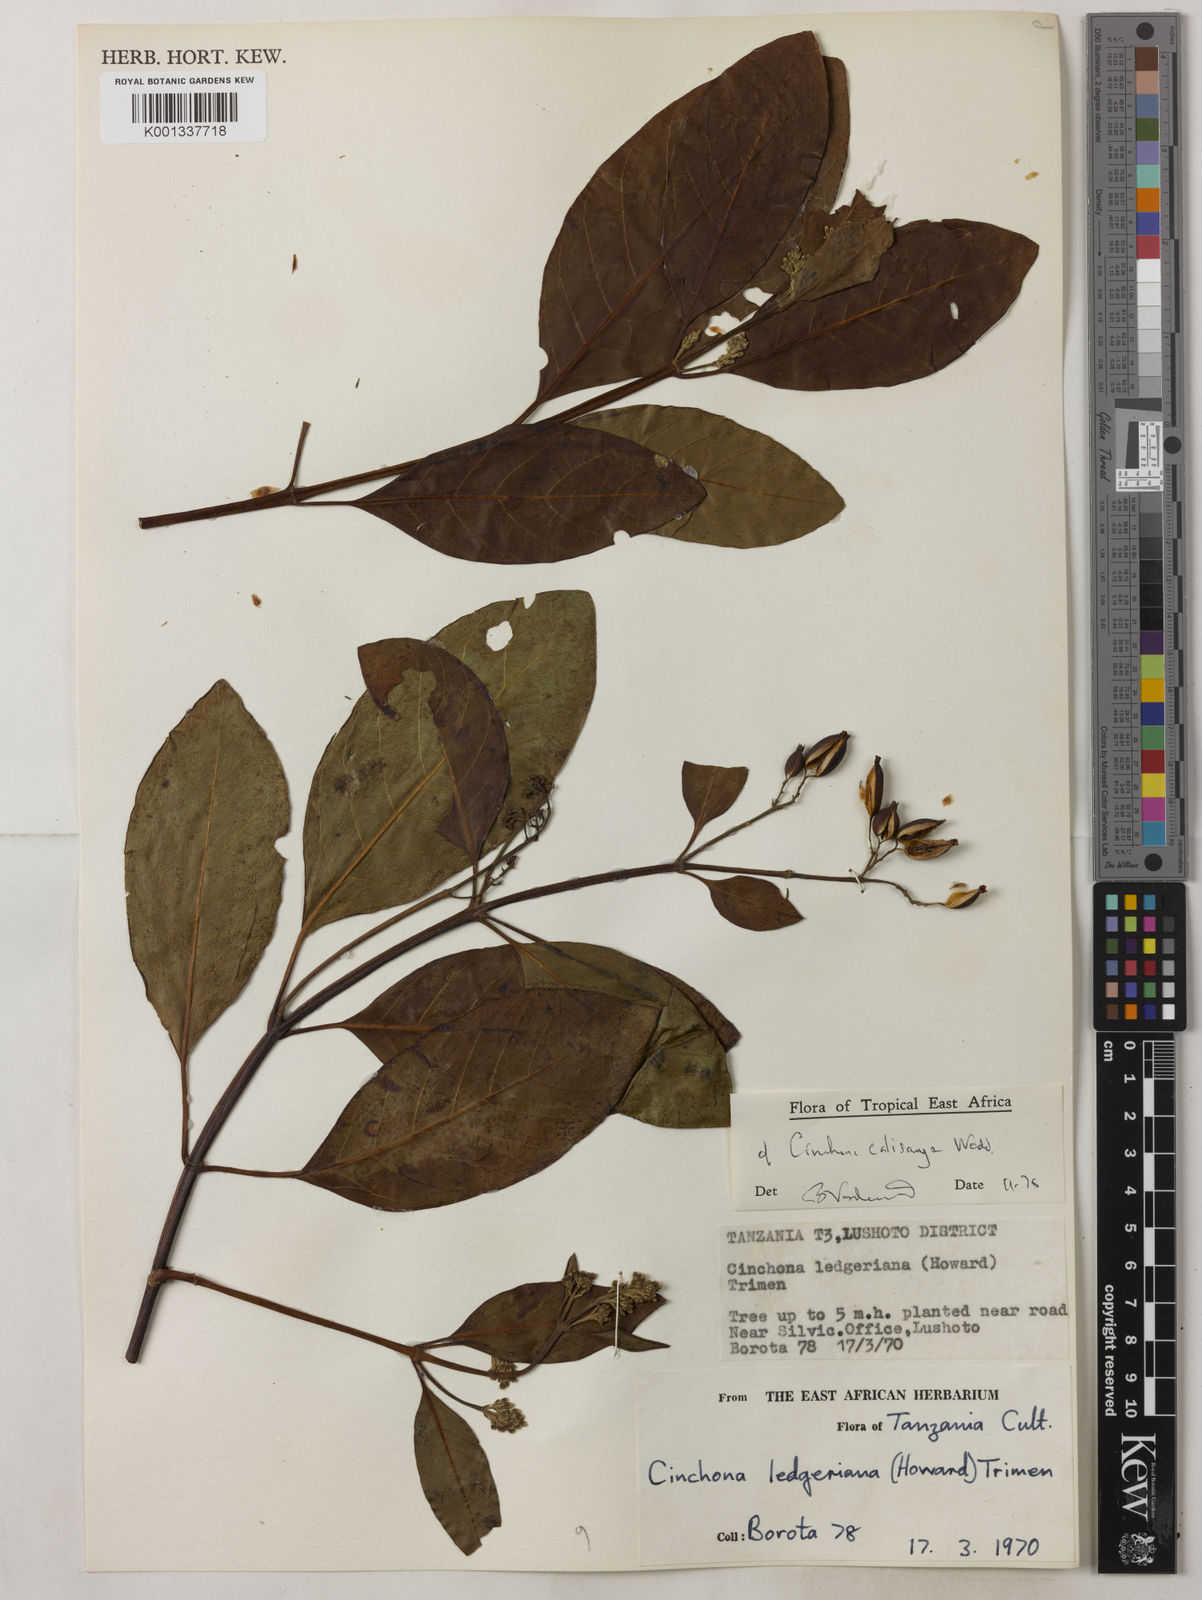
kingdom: Plantae
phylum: Tracheophyta
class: Magnoliopsida
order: Gentianales
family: Rubiaceae
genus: Cinchona
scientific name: Cinchona calisaya
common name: Ledgerbark
